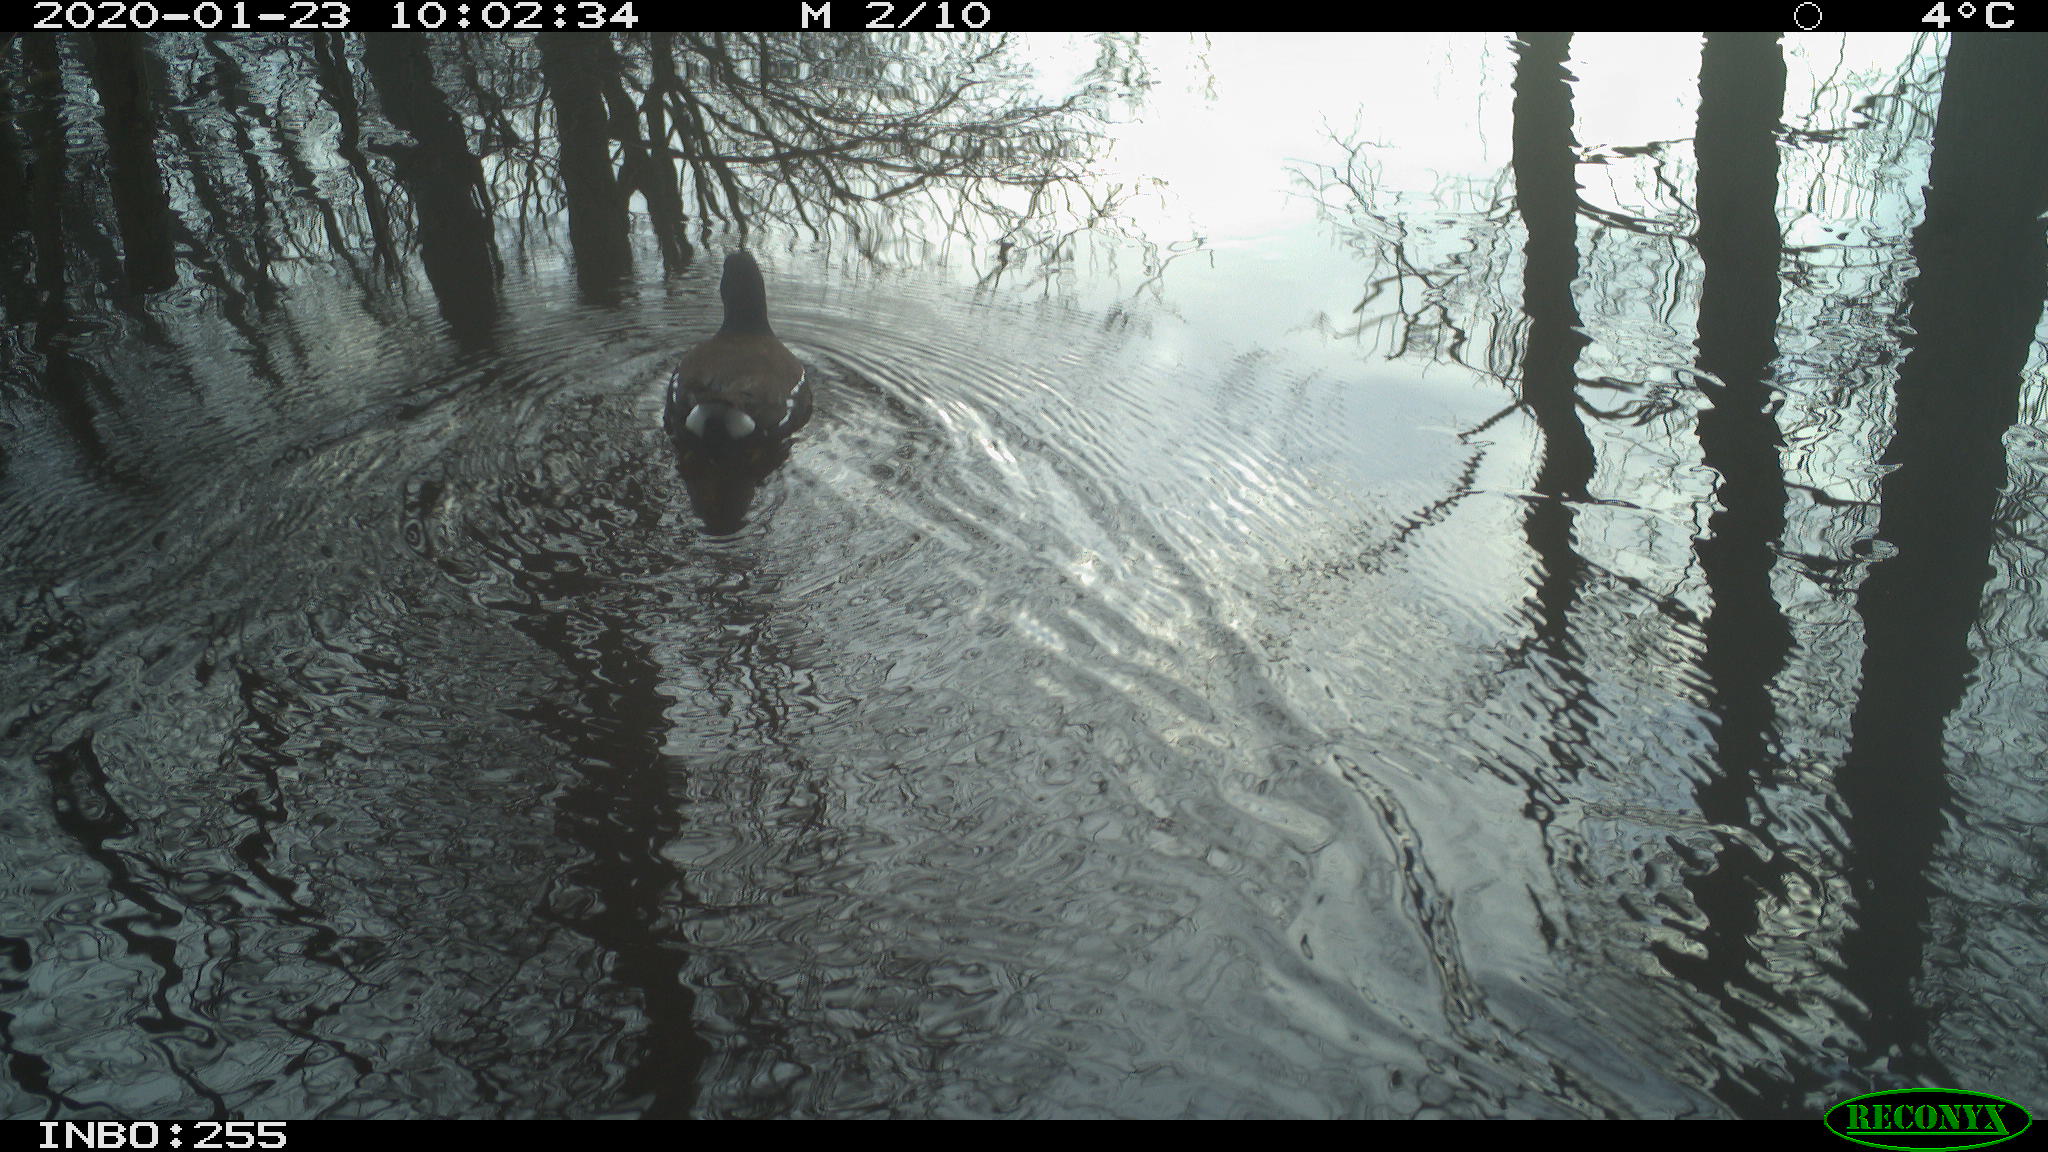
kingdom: Animalia
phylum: Chordata
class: Aves
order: Gruiformes
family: Rallidae
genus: Gallinula
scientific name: Gallinula chloropus
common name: Common moorhen
